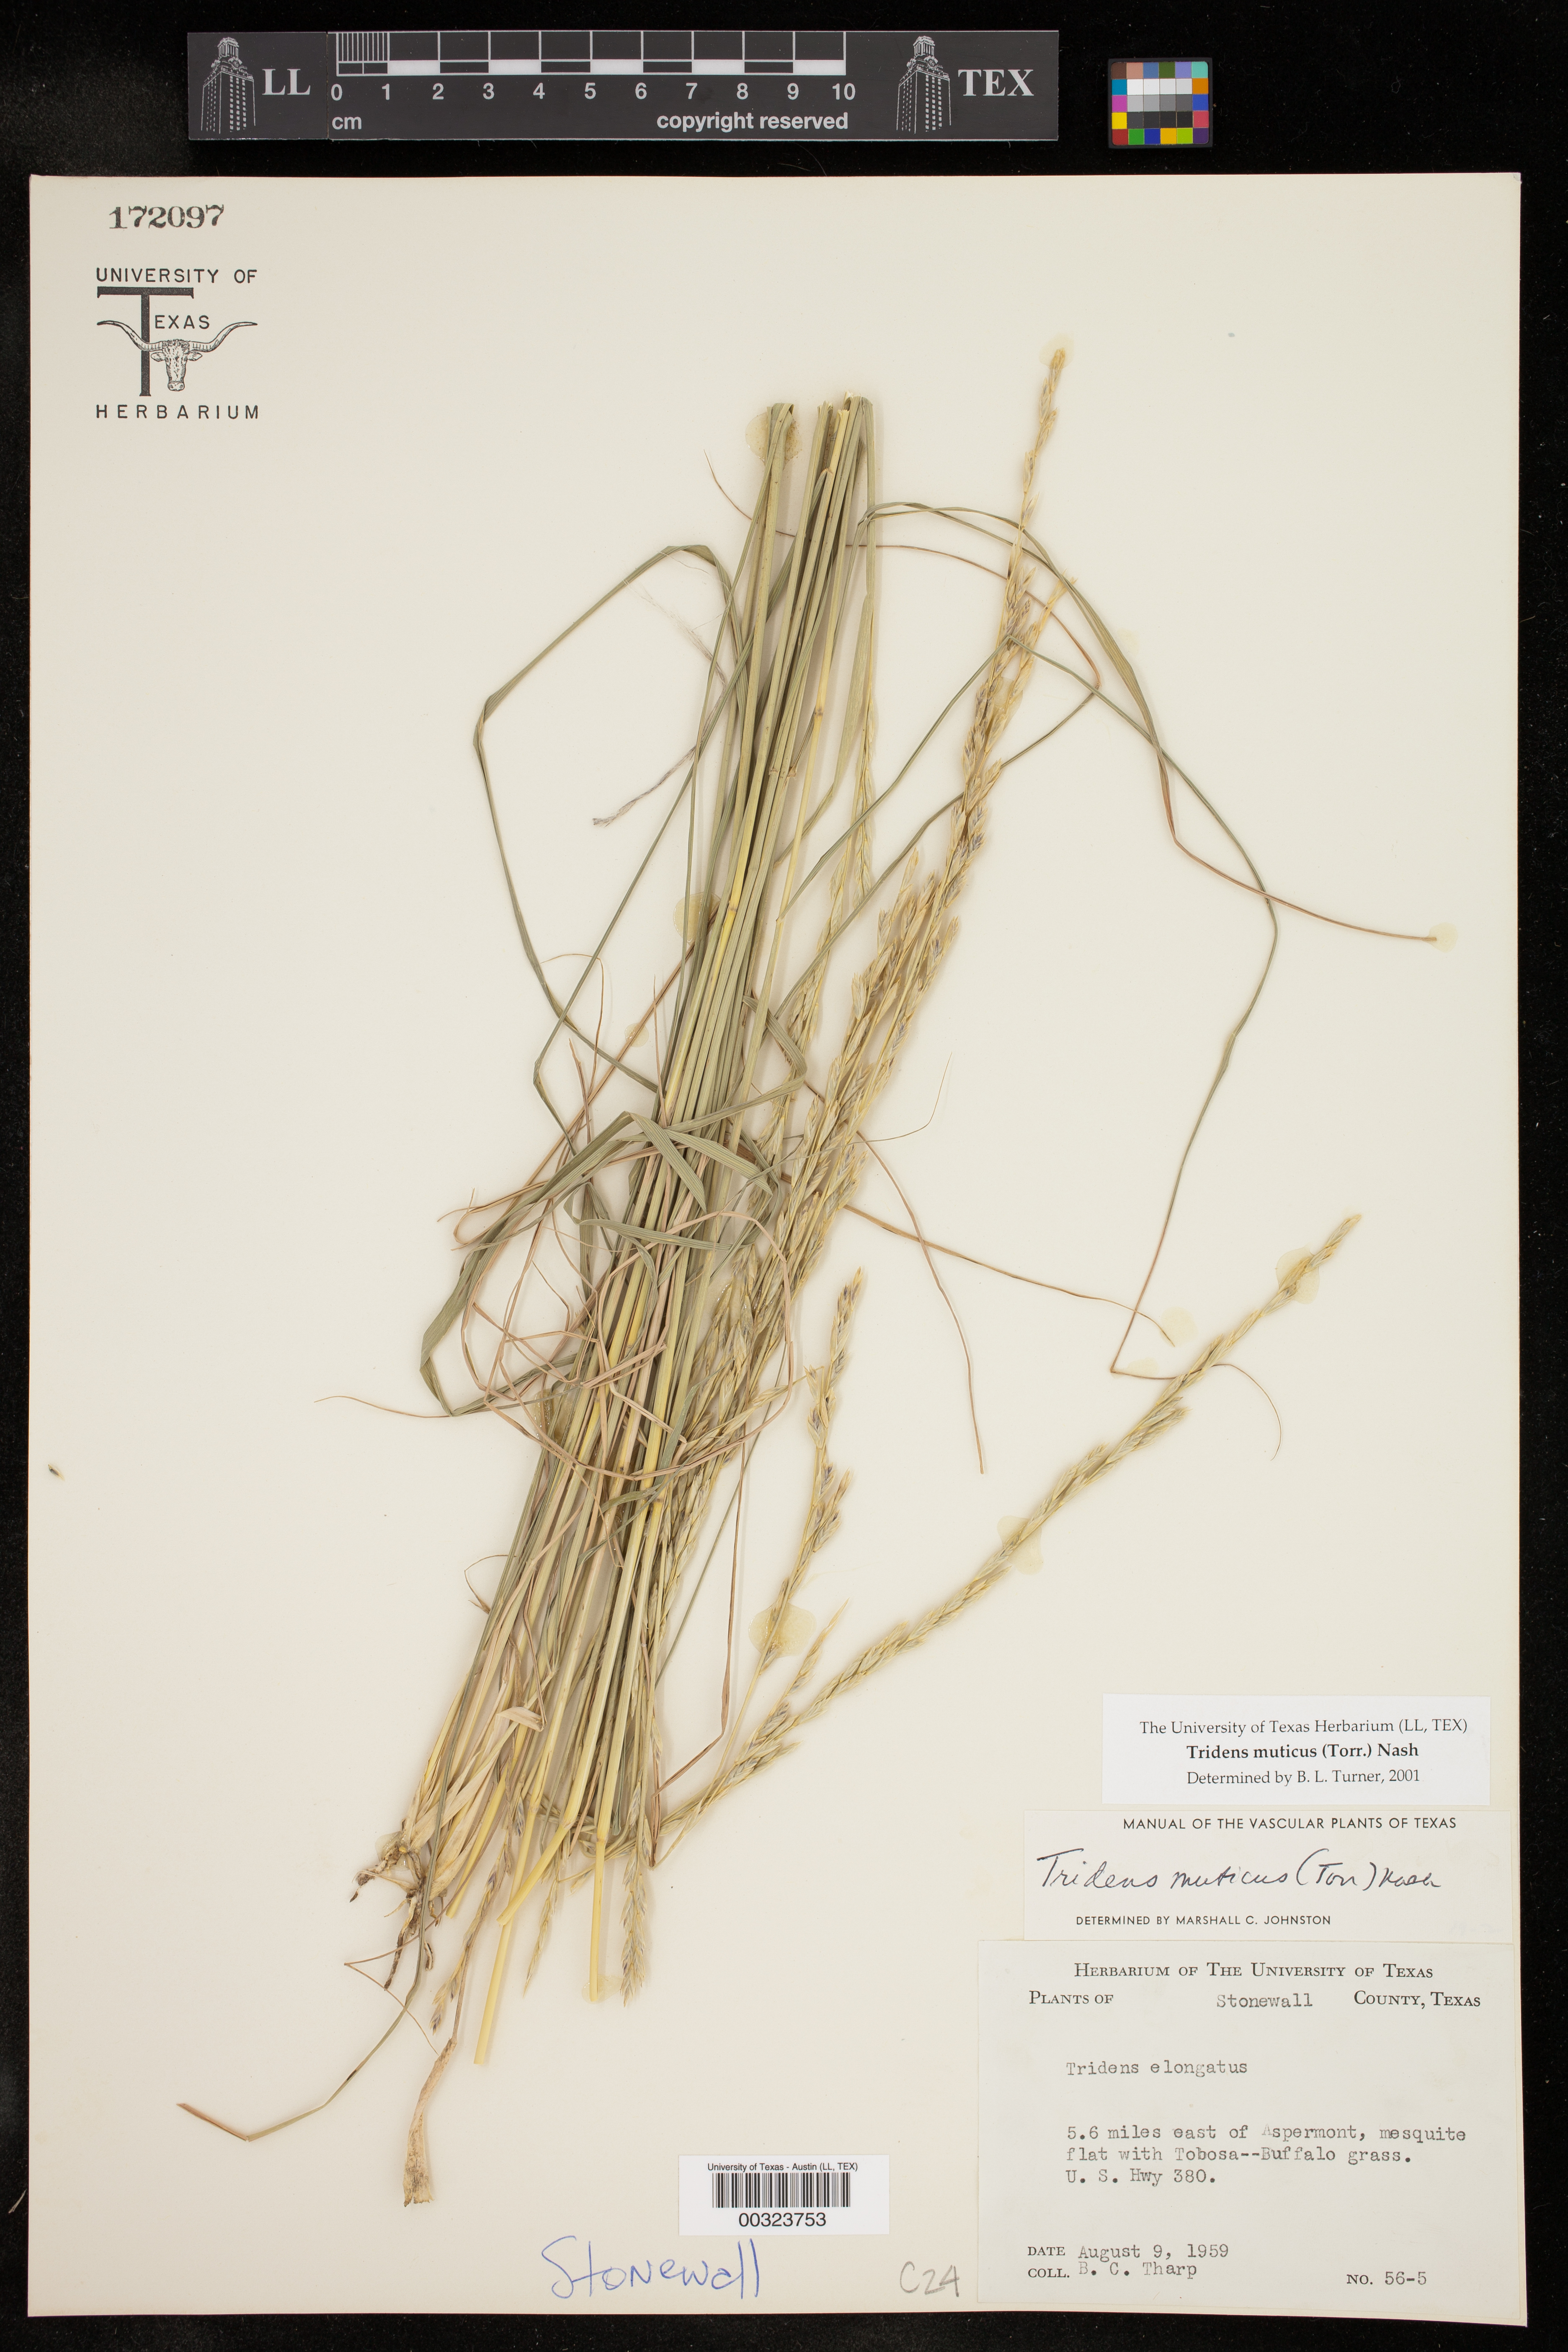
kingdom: Plantae
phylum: Tracheophyta
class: Liliopsida
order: Poales
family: Poaceae
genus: Tridentopsis
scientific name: Tridentopsis mutica
